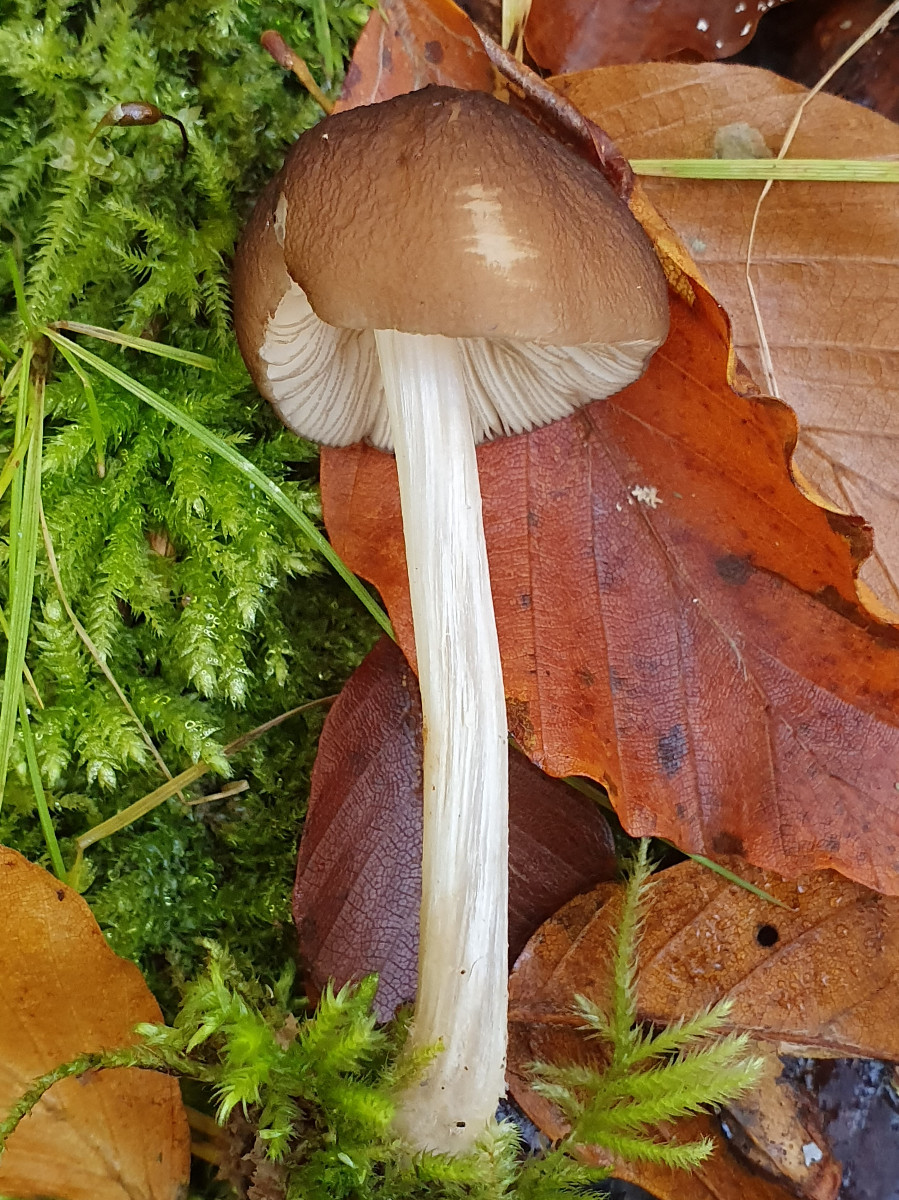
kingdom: Fungi
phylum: Basidiomycota
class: Agaricomycetes
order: Agaricales
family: Pluteaceae
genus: Pluteus
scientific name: Pluteus phlebophorus
